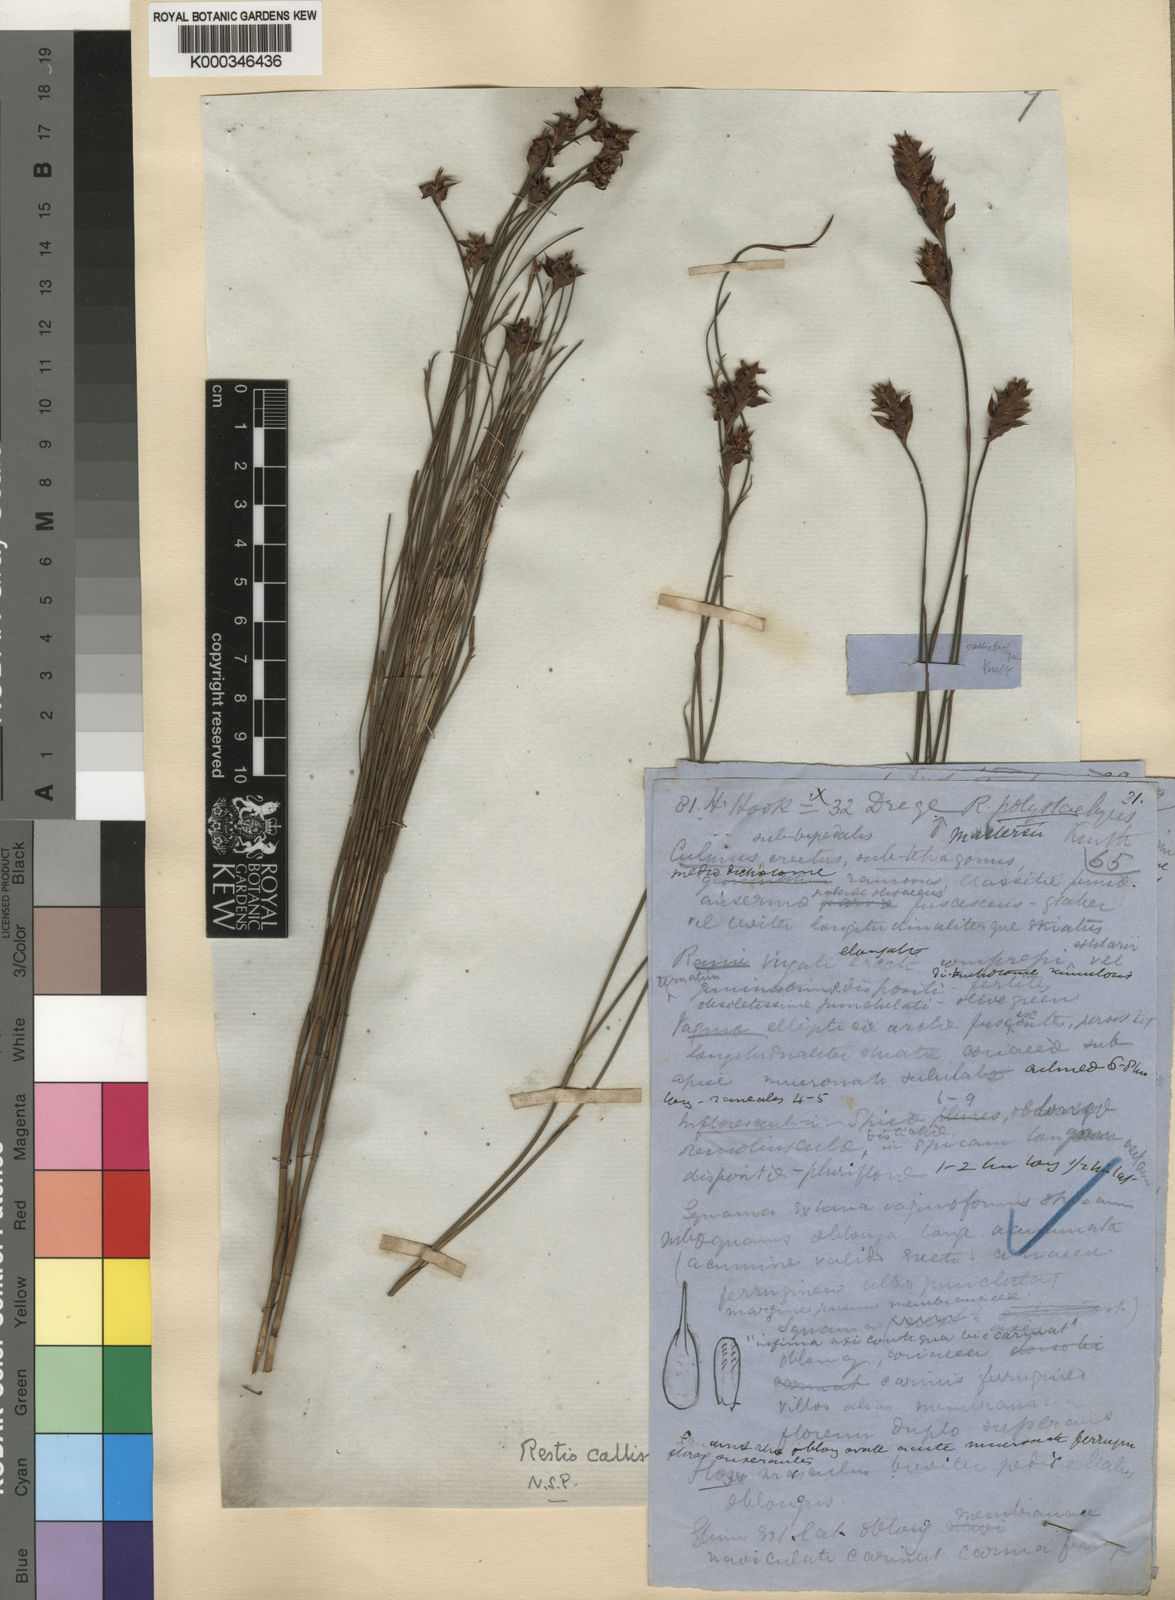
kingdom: Plantae
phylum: Tracheophyta
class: Liliopsida
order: Poales
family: Restionaceae
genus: Platycaulos
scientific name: Platycaulos callistachyus
